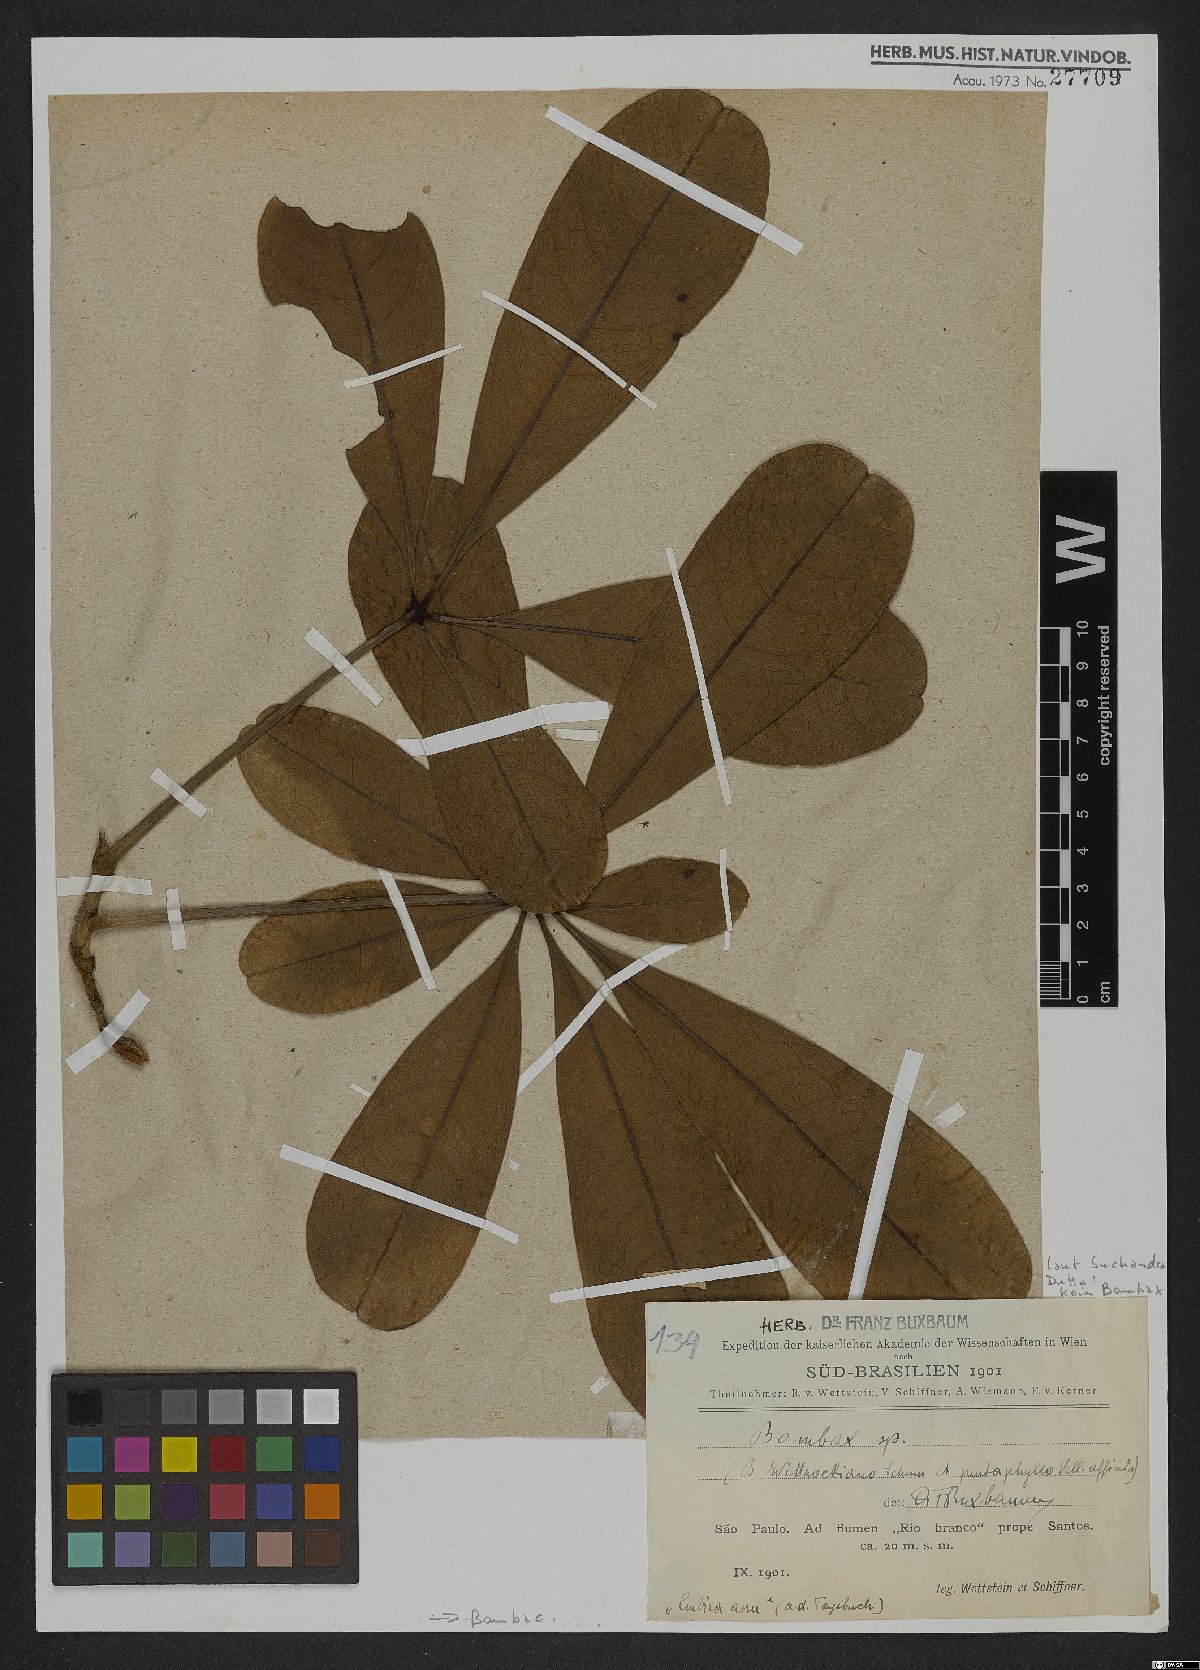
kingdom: Plantae
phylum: Tracheophyta
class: Magnoliopsida
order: Malvales
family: Malvaceae
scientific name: Malvaceae
